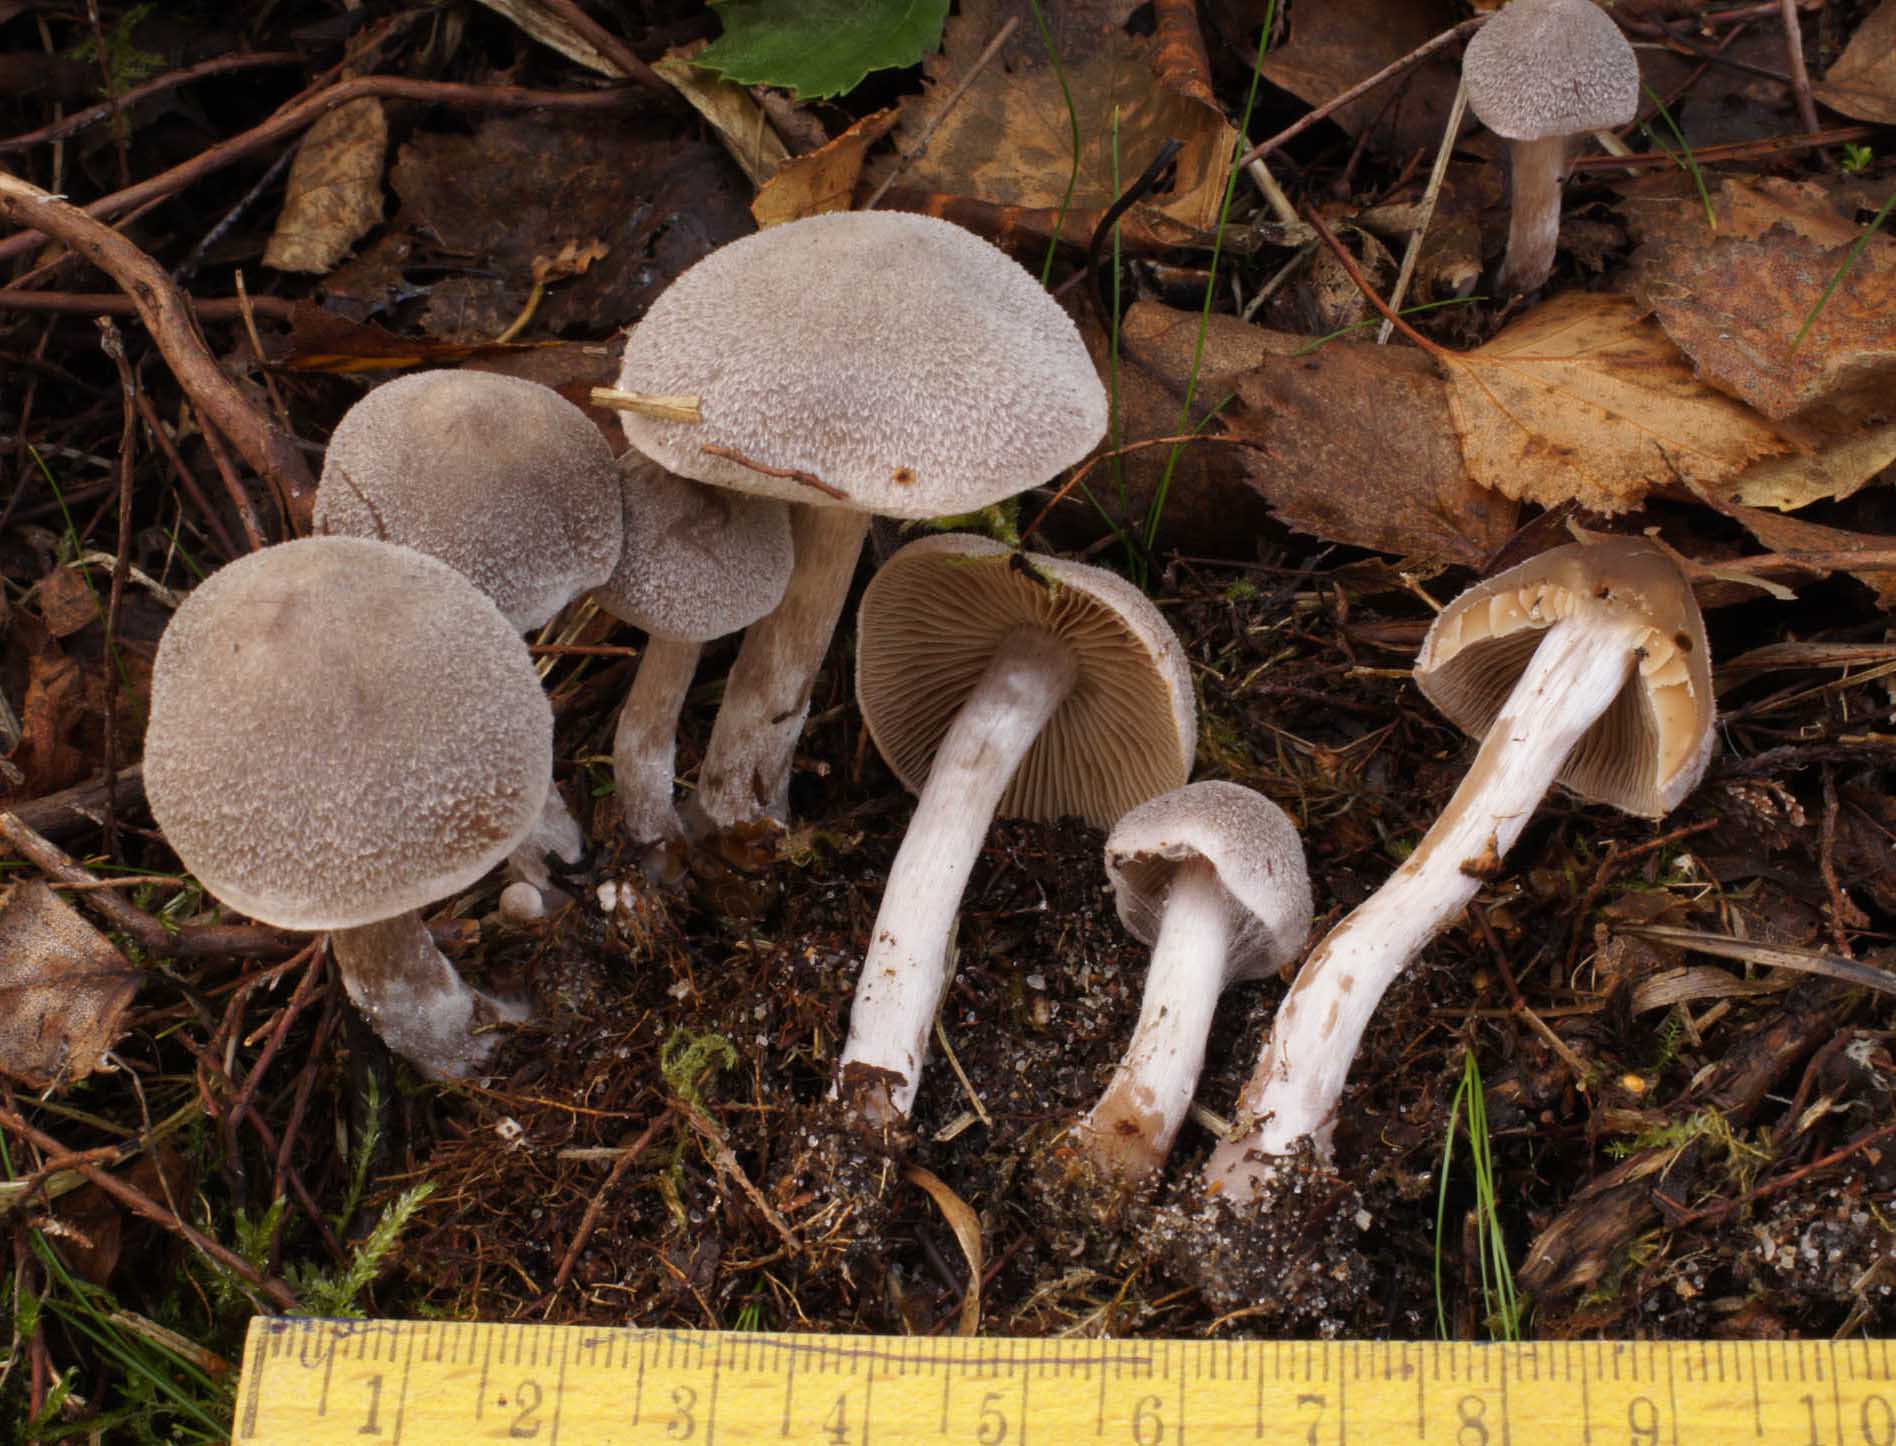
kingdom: Fungi
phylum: Basidiomycota
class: Agaricomycetes
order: Agaricales
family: Cortinariaceae
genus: Cortinarius
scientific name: Cortinarius
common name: pelargonie-slørhat
